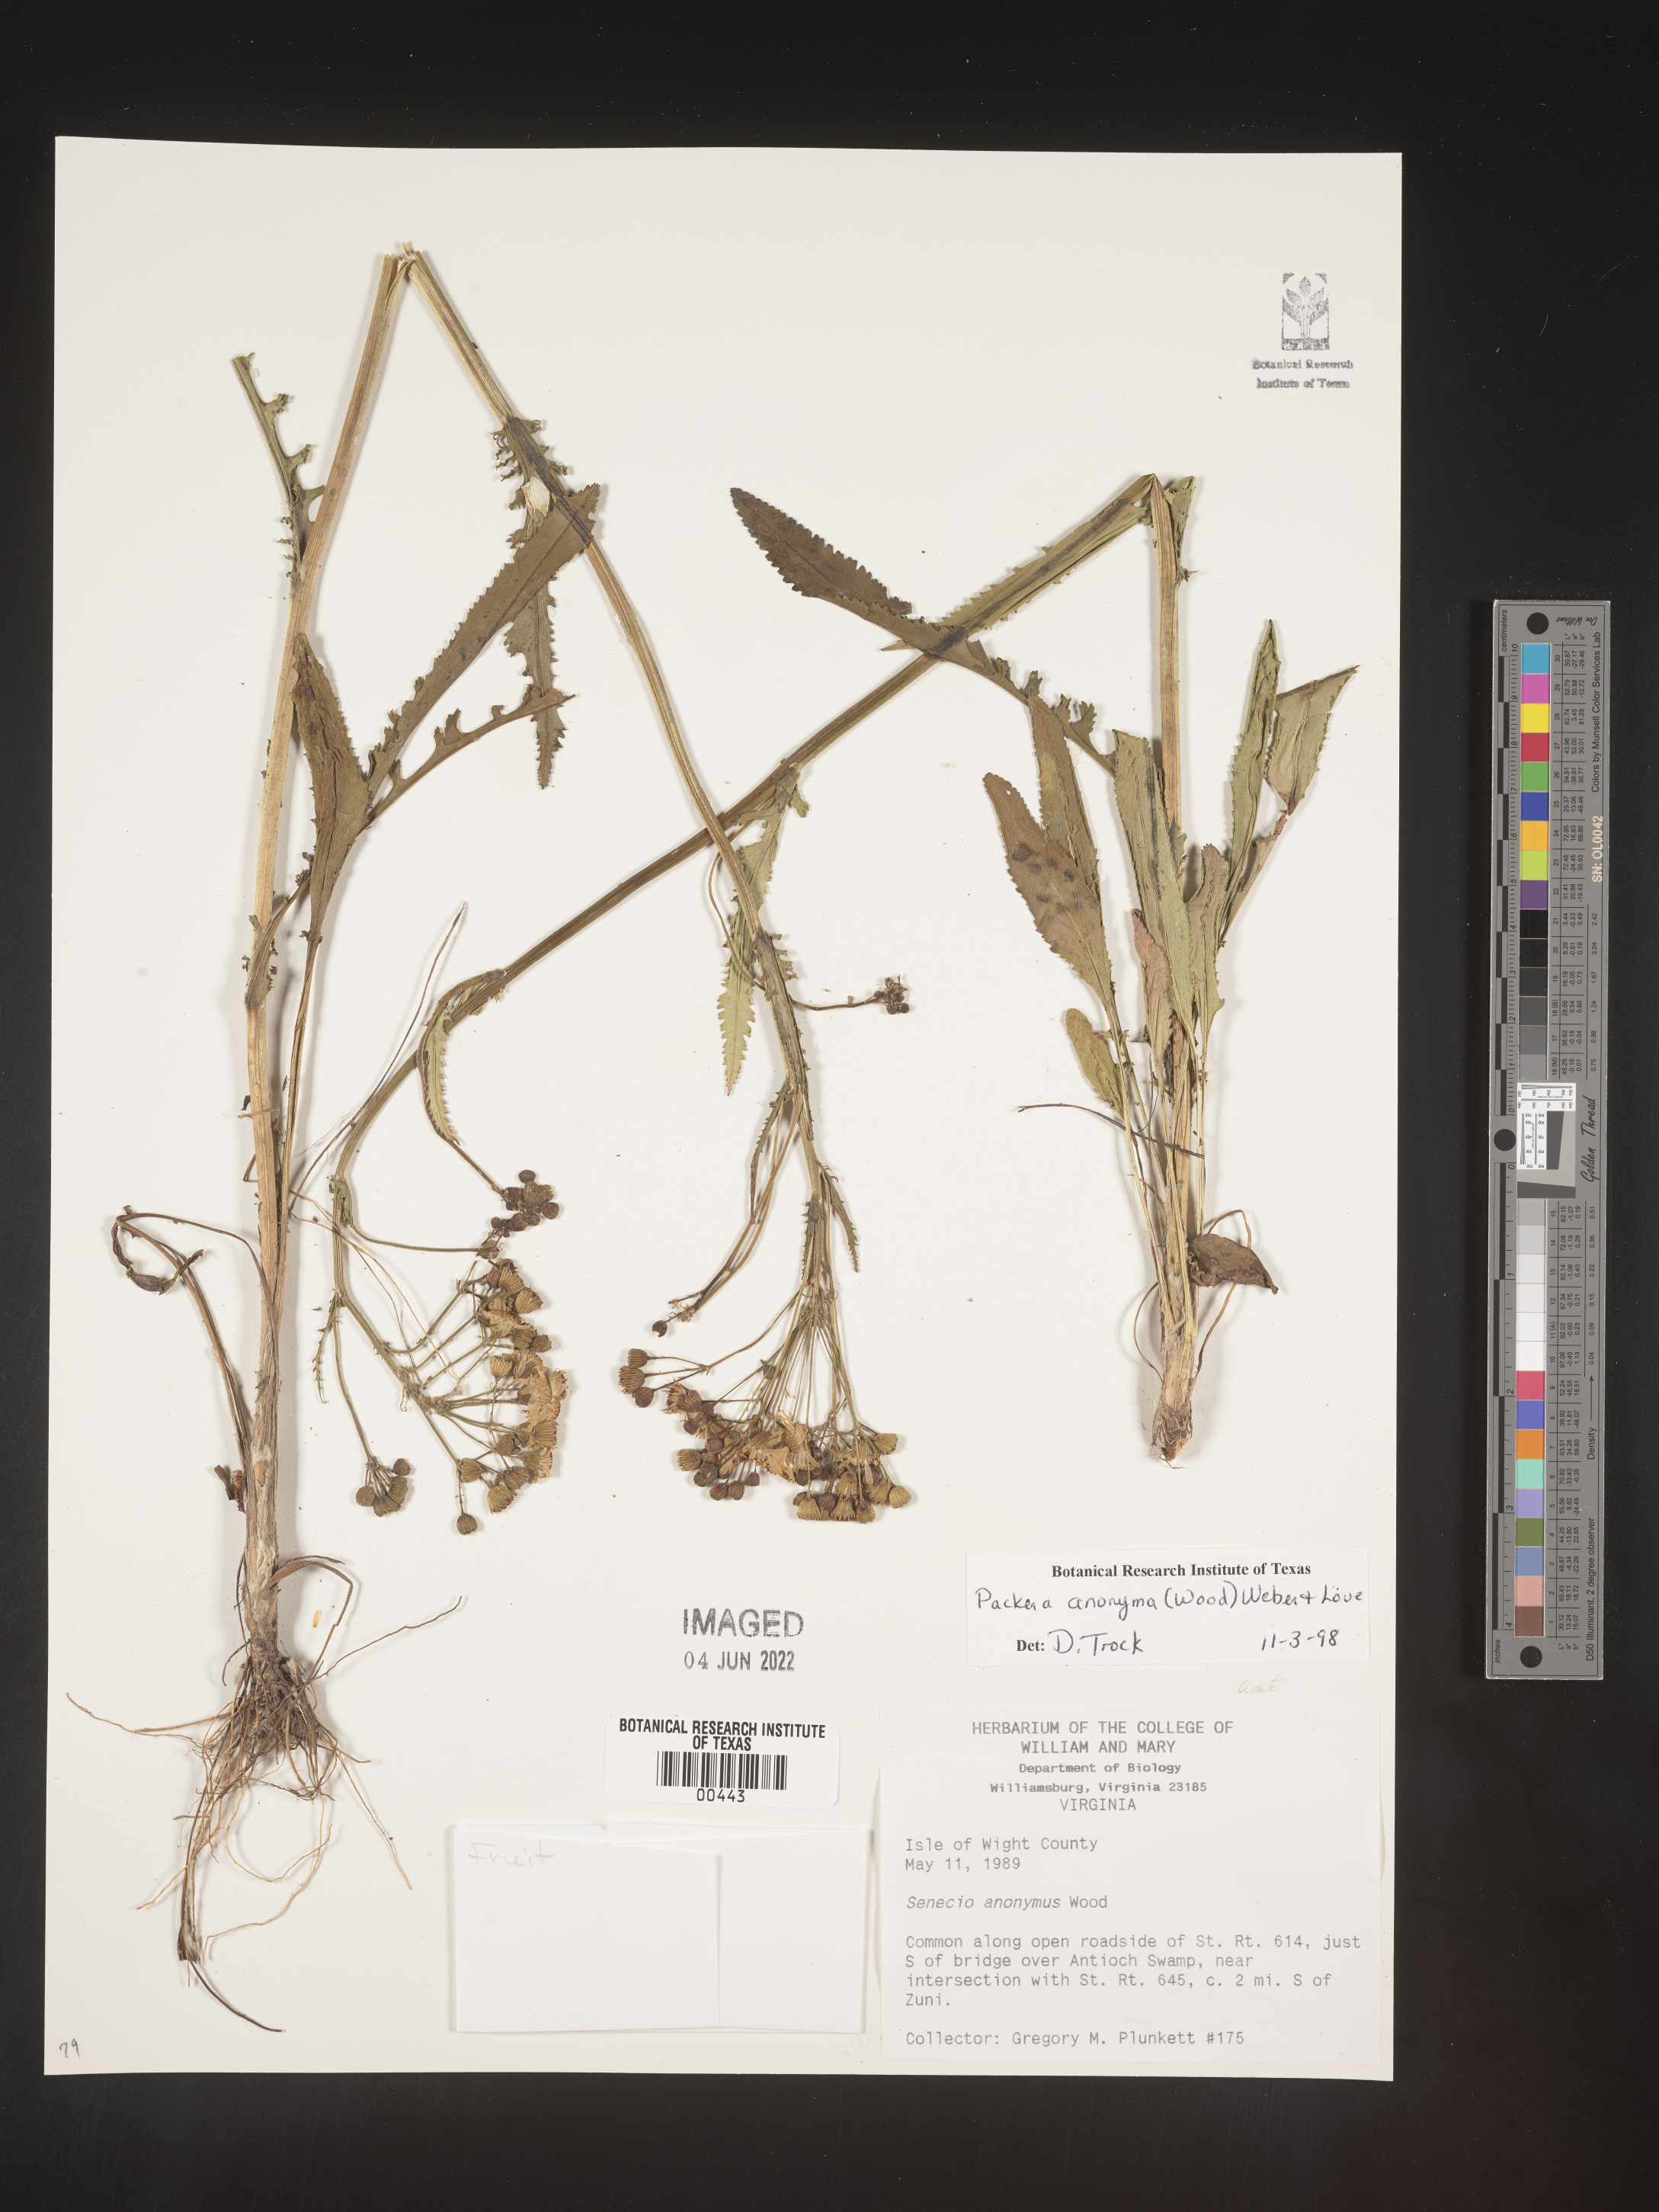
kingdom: Plantae
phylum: Tracheophyta
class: Magnoliopsida
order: Asterales
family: Asteraceae
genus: Packera
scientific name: Packera anonyma
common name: Small ragwort
